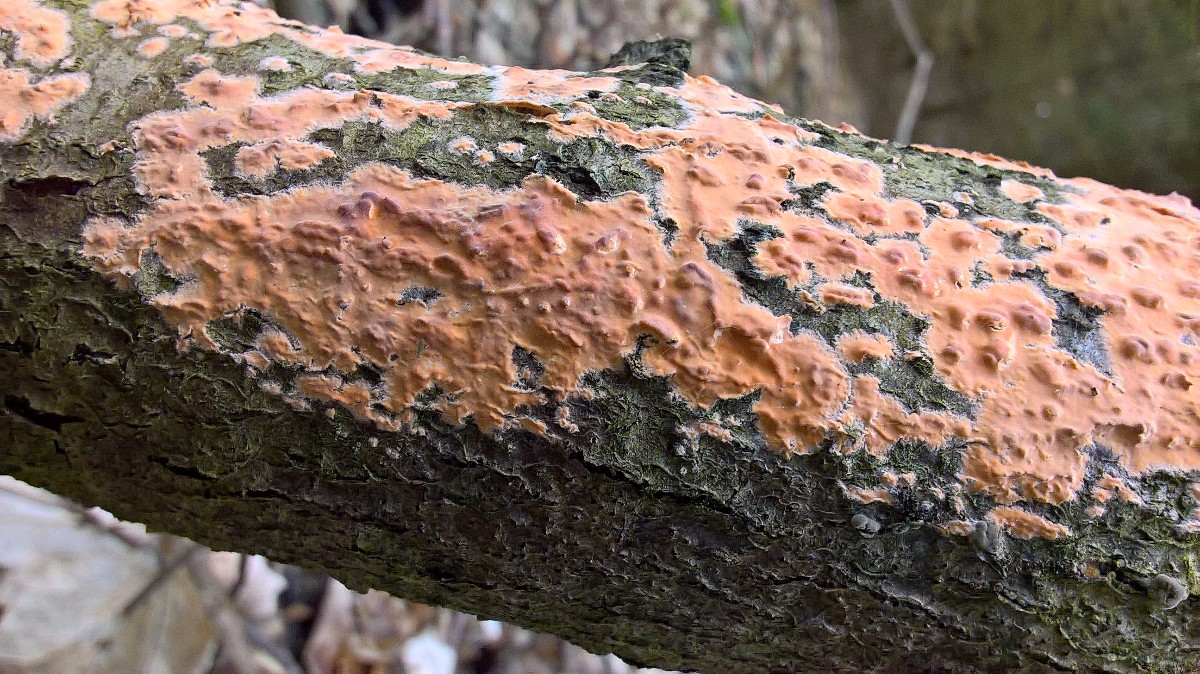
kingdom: Fungi
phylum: Basidiomycota
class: Agaricomycetes
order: Russulales
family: Peniophoraceae
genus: Peniophora
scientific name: Peniophora incarnata
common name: laksefarvet voksskind
